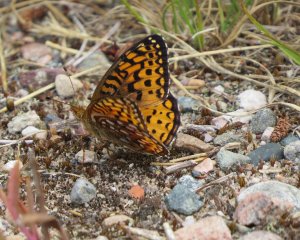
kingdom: Animalia
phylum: Arthropoda
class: Insecta
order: Lepidoptera
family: Nymphalidae
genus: Speyeria
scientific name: Speyeria aphrodite
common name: Aphrodite Fritillary
